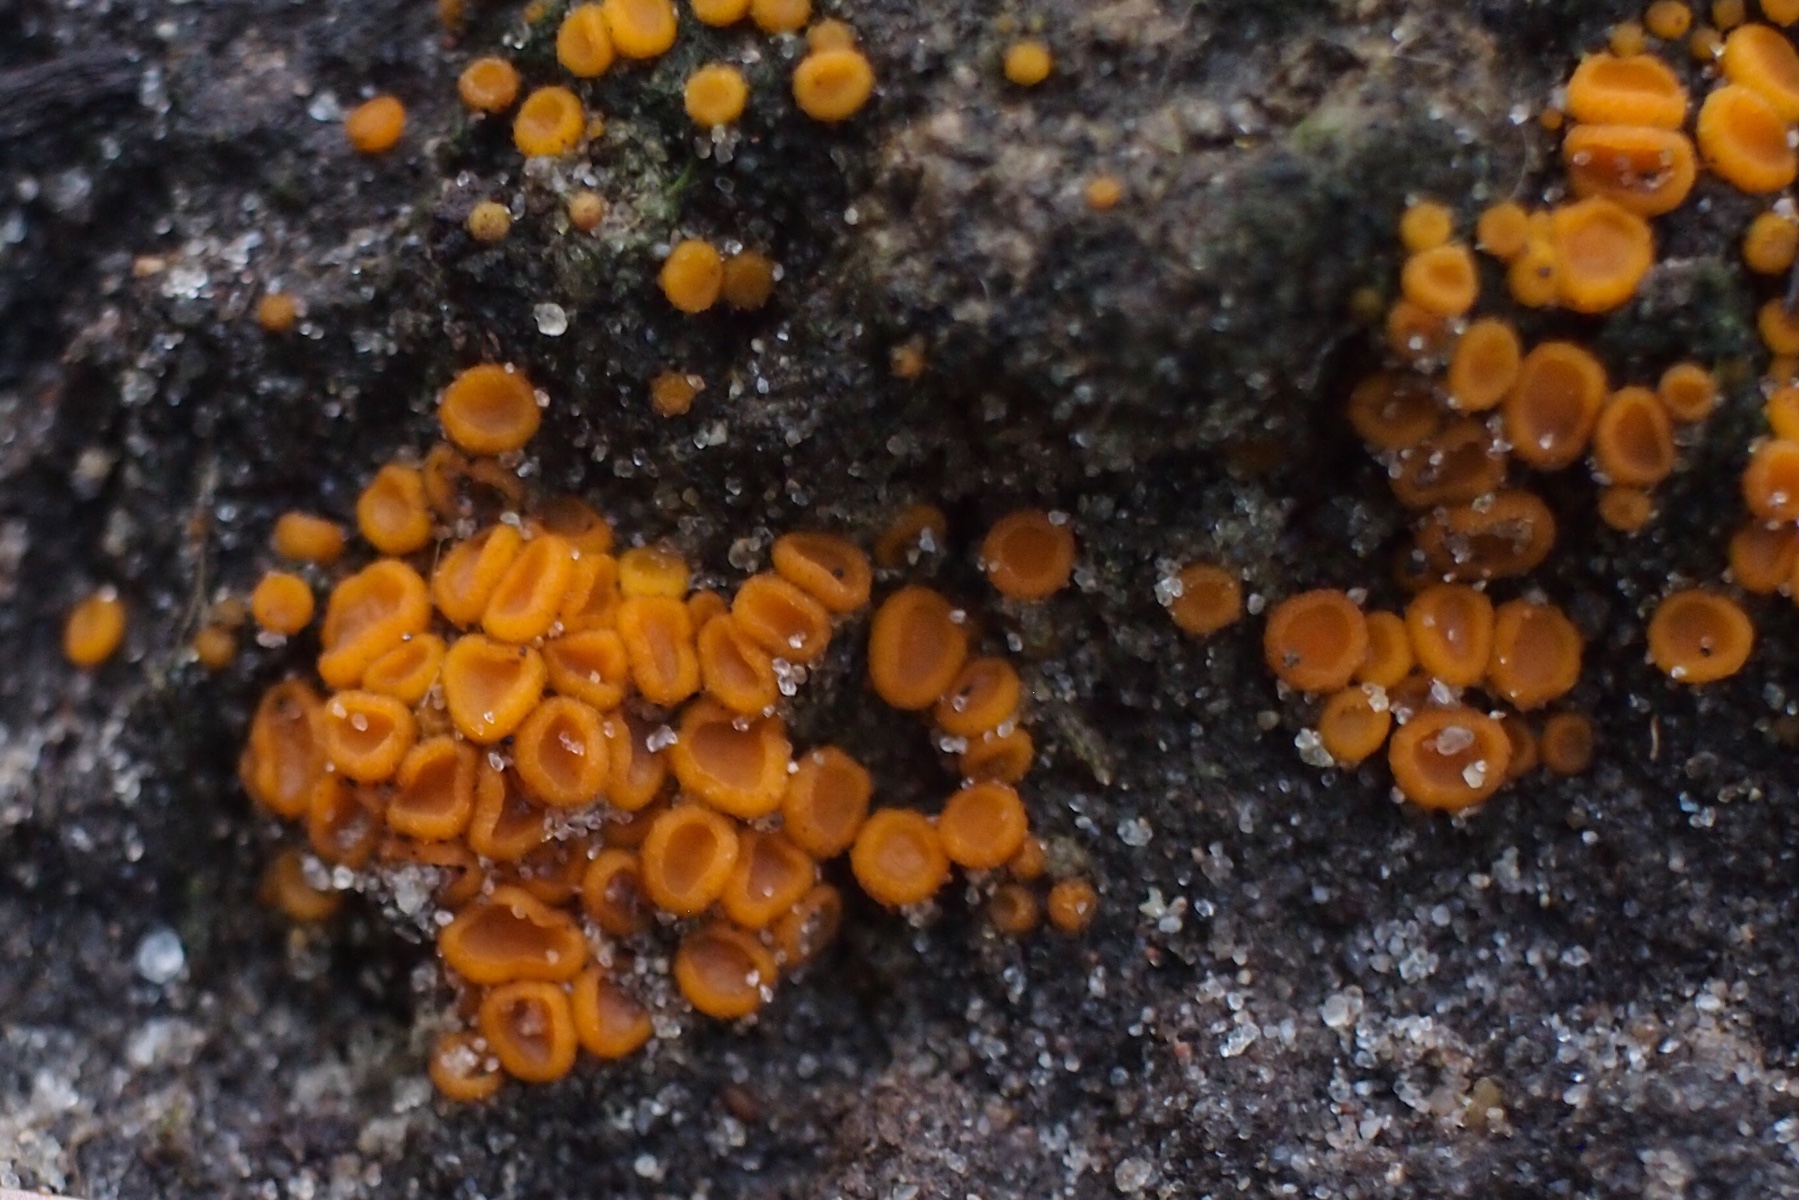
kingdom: Fungi
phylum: Ascomycota
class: Pezizomycetes
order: Pezizales
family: Pyronemataceae
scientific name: Pyronemataceae
